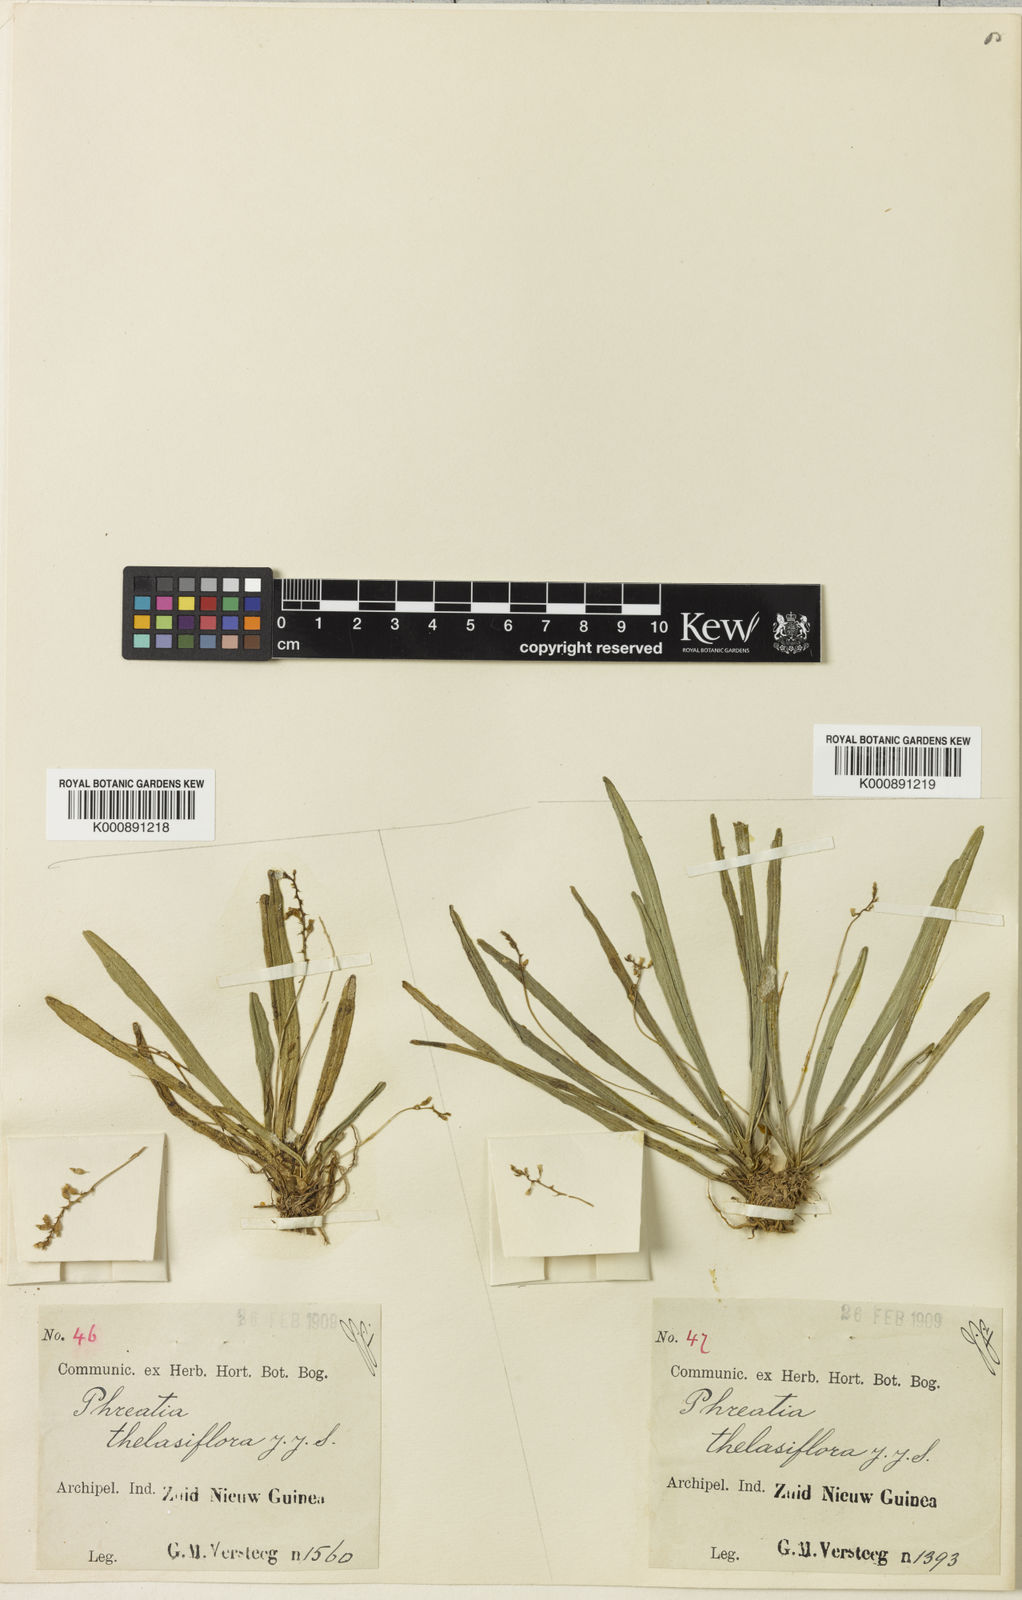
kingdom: Plantae
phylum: Tracheophyta
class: Liliopsida
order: Asparagales
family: Orchidaceae
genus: Thelasis
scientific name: Thelasis sphaerocarpa
